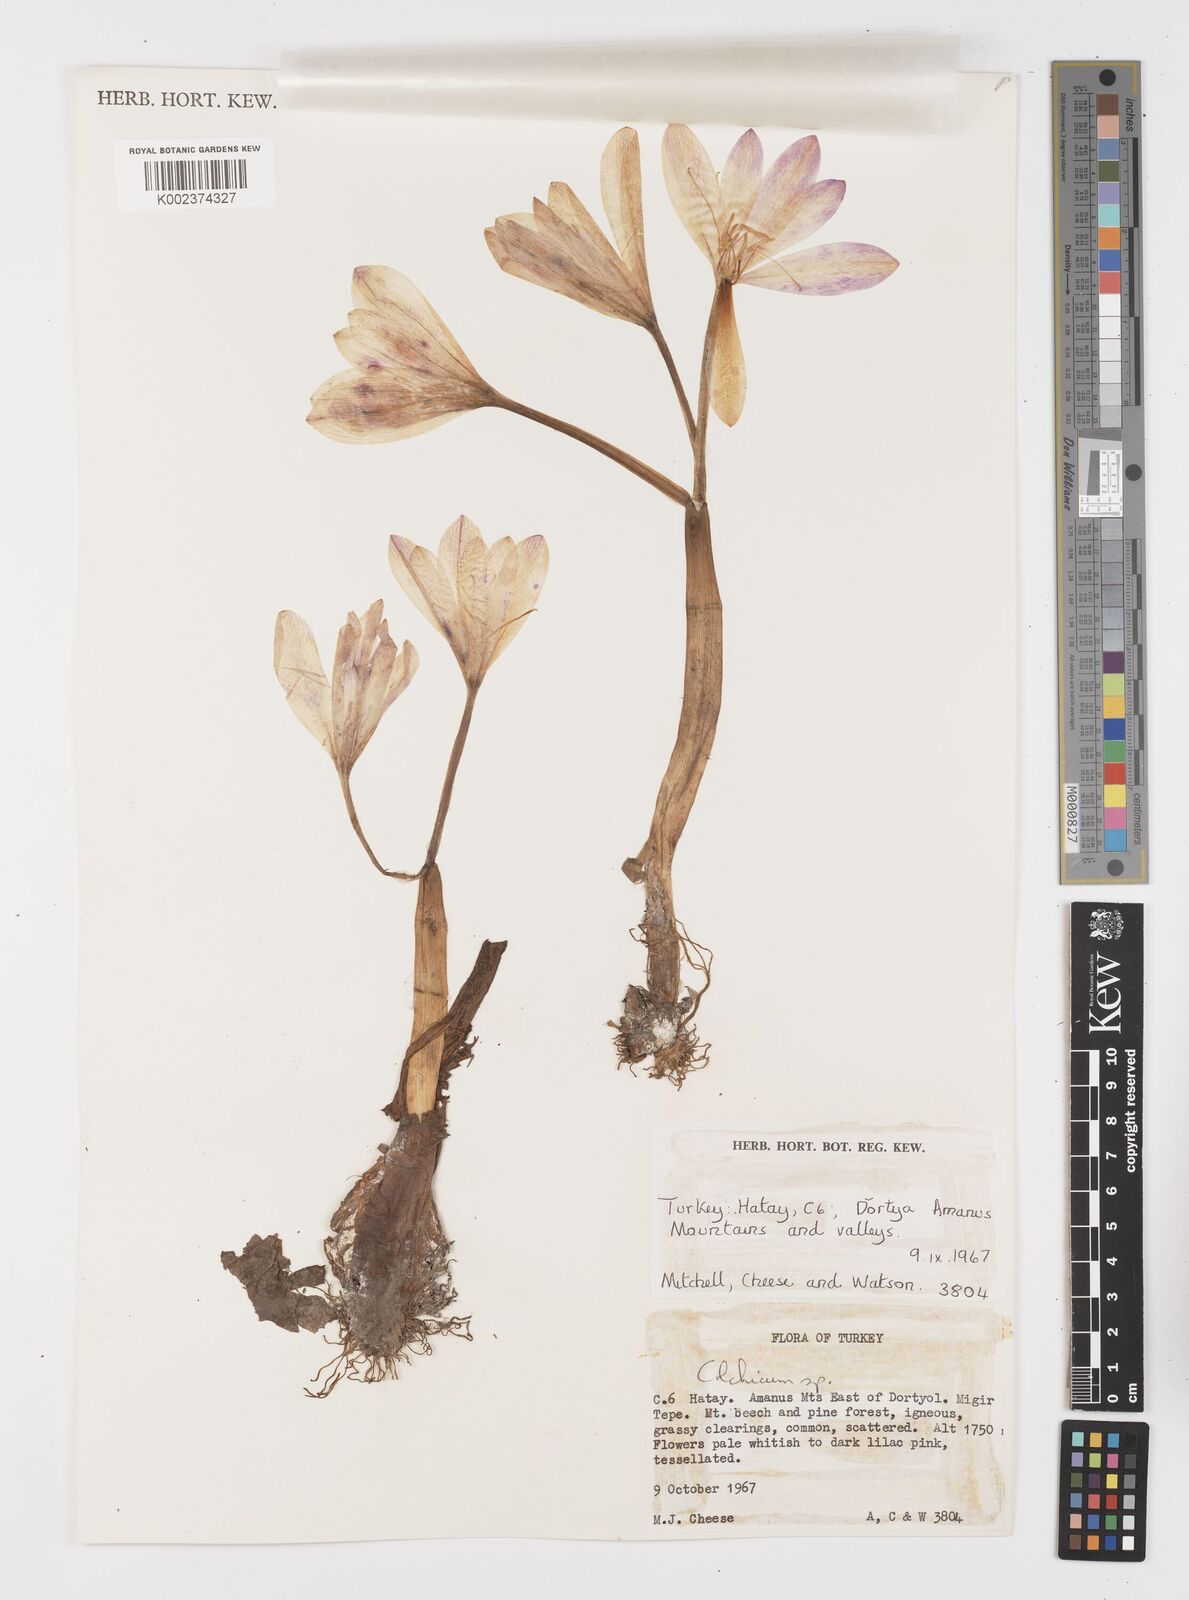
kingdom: Plantae
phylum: Tracheophyta
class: Liliopsida
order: Liliales
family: Colchicaceae
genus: Colchicum
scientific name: Colchicum
